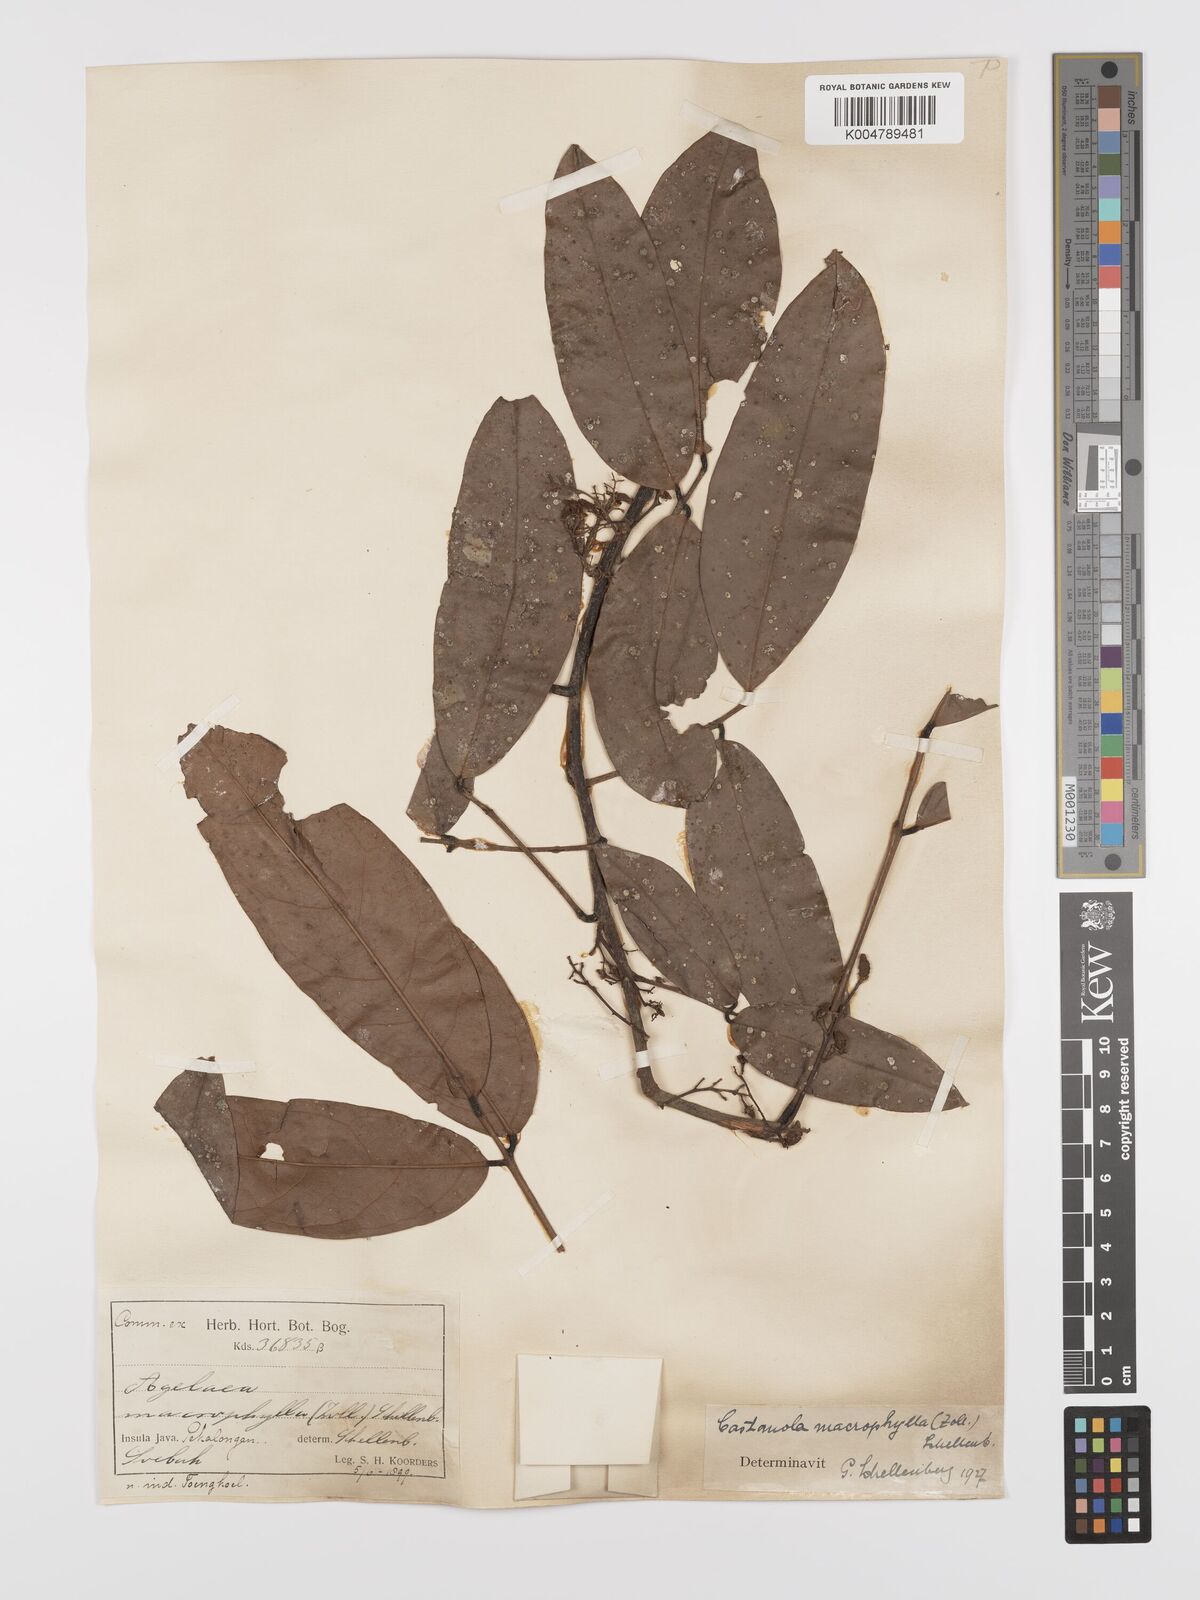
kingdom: Plantae
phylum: Tracheophyta
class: Magnoliopsida
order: Oxalidales
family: Connaraceae
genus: Agelaea
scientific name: Agelaea macrophylla
